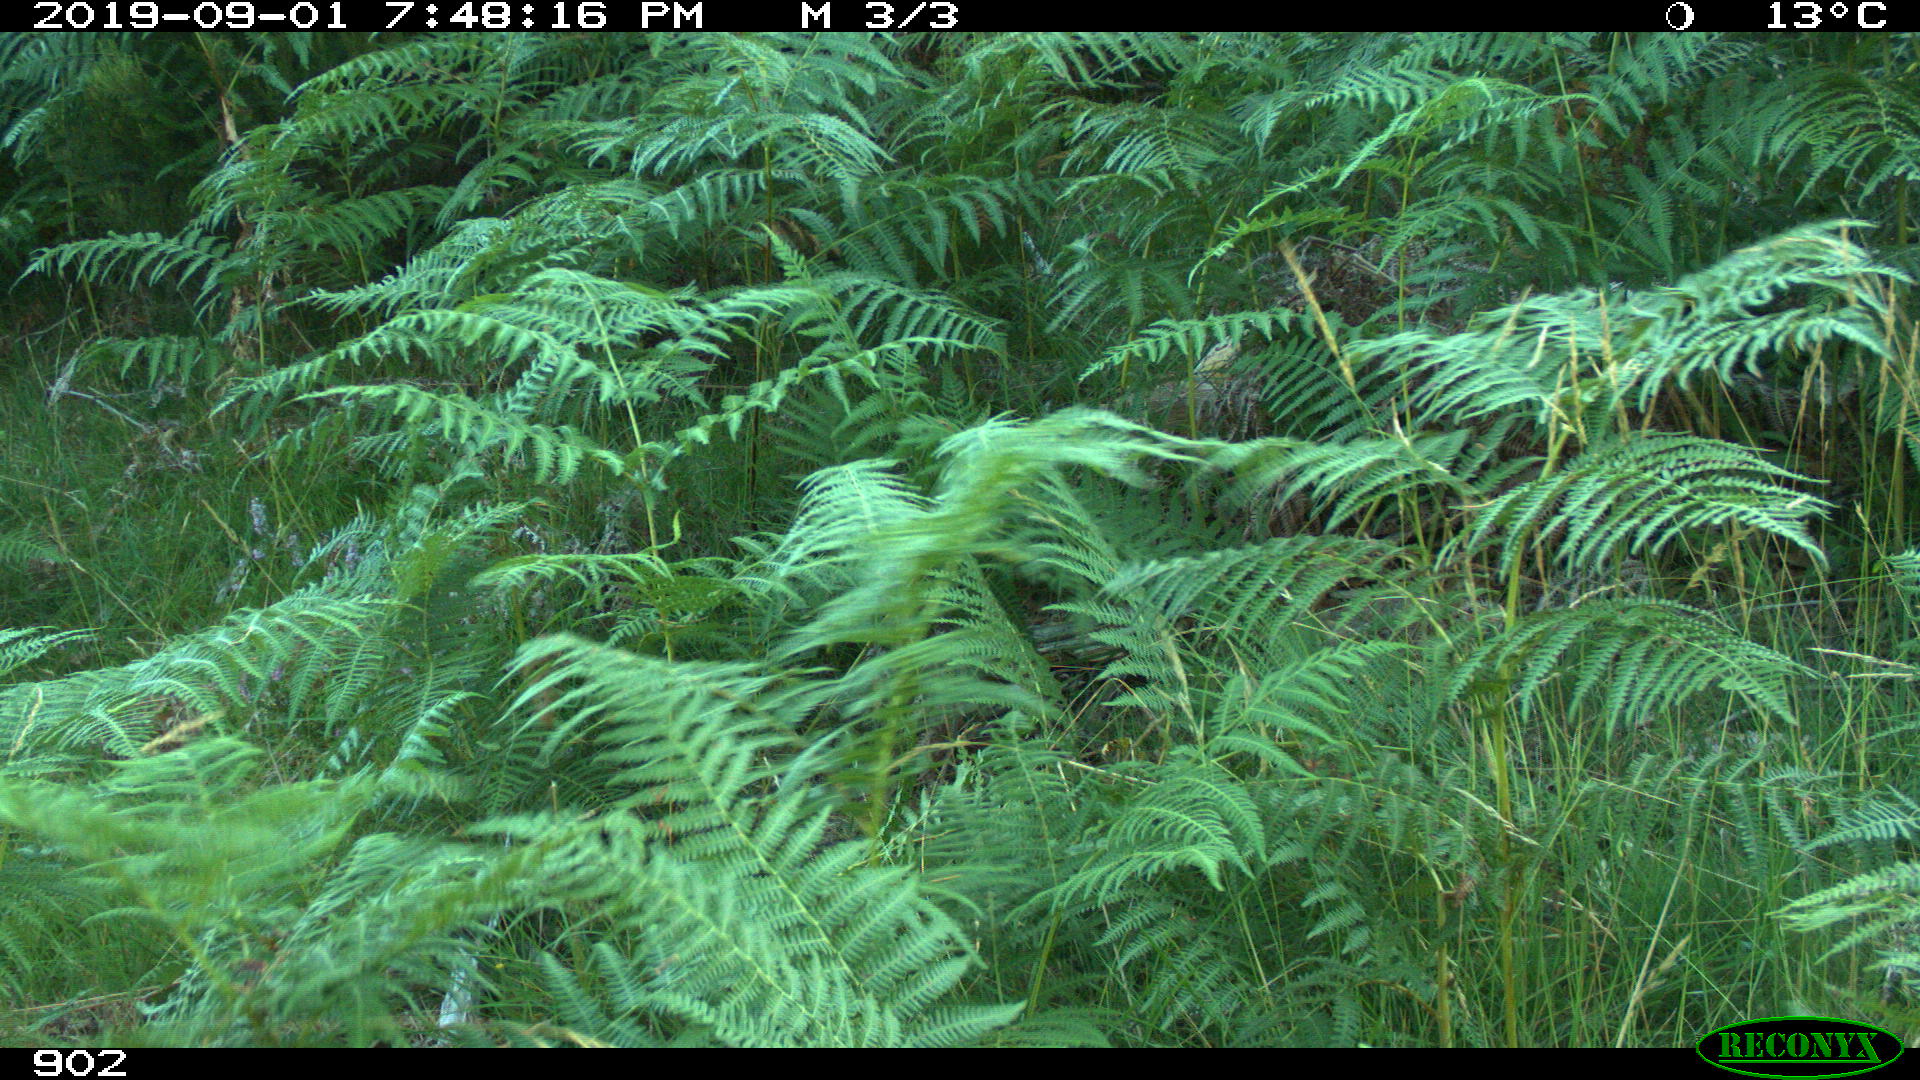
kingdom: Animalia
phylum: Chordata
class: Mammalia
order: Artiodactyla
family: Cervidae
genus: Capreolus
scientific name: Capreolus capreolus
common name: Western roe deer
